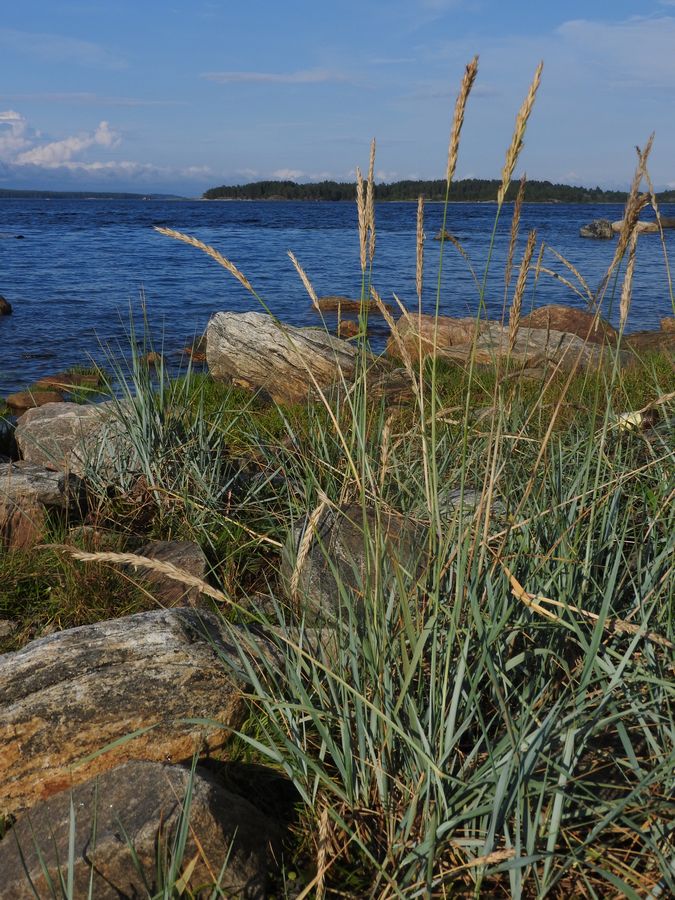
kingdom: Plantae
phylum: Tracheophyta
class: Liliopsida
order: Poales
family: Poaceae
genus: Leymus
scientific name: Leymus arenarius
